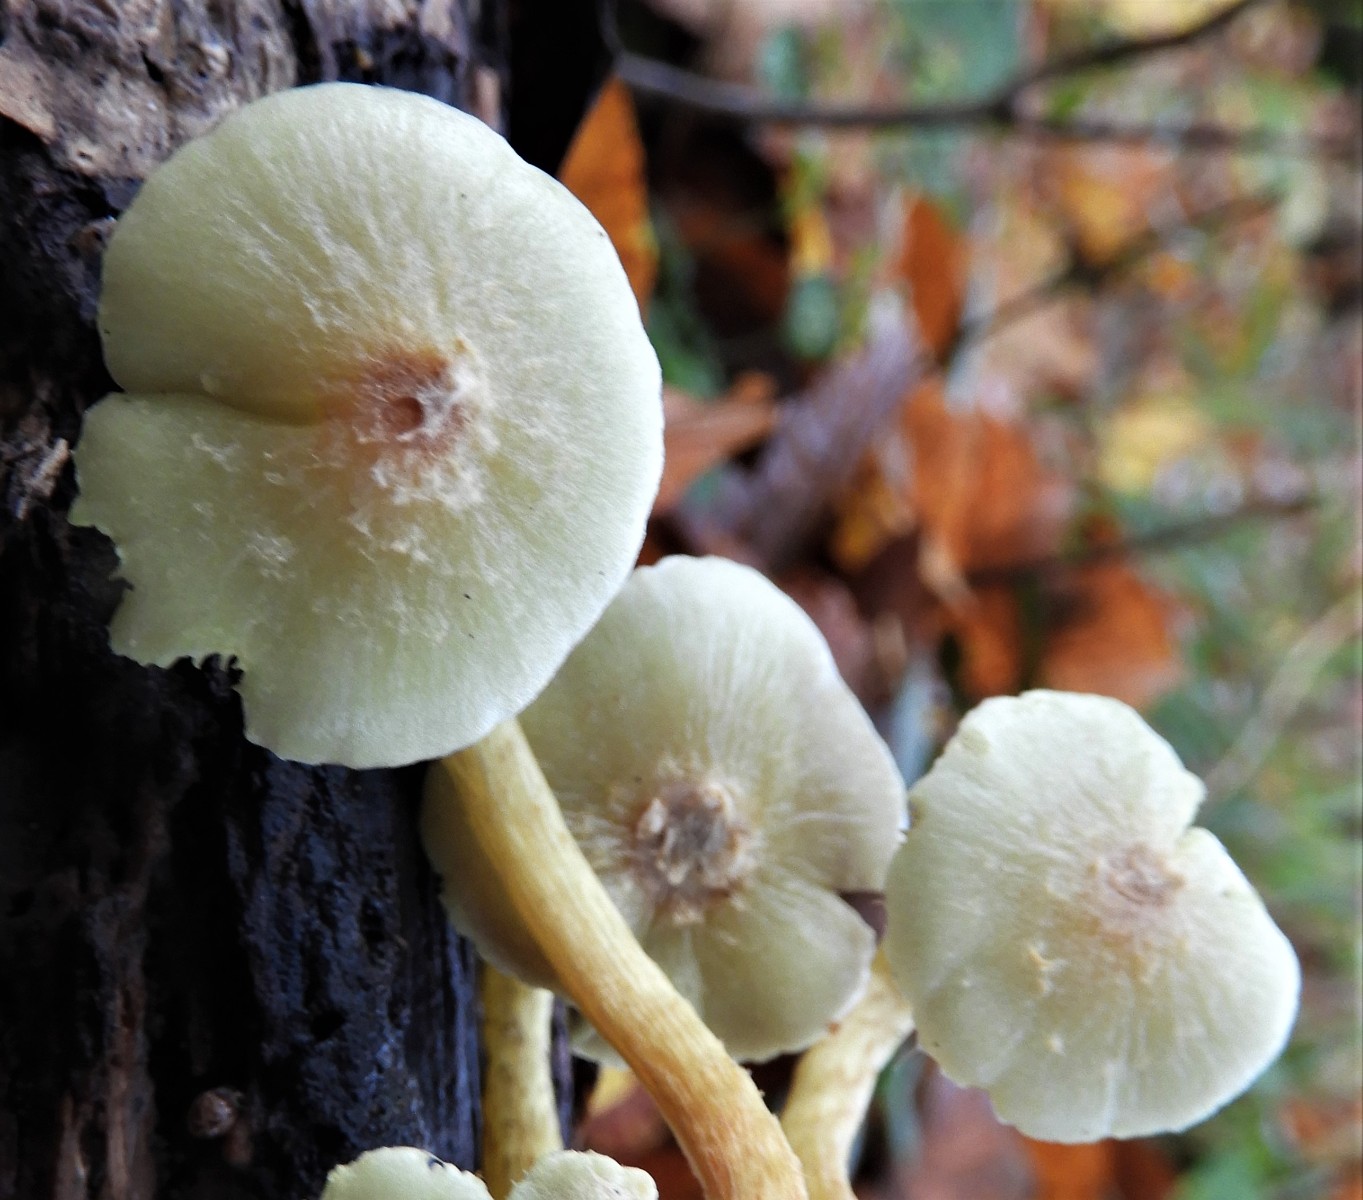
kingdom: Fungi
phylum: Basidiomycota
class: Agaricomycetes
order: Agaricales
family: Strophariaceae
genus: Hypholoma
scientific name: Hypholoma fasciculare
